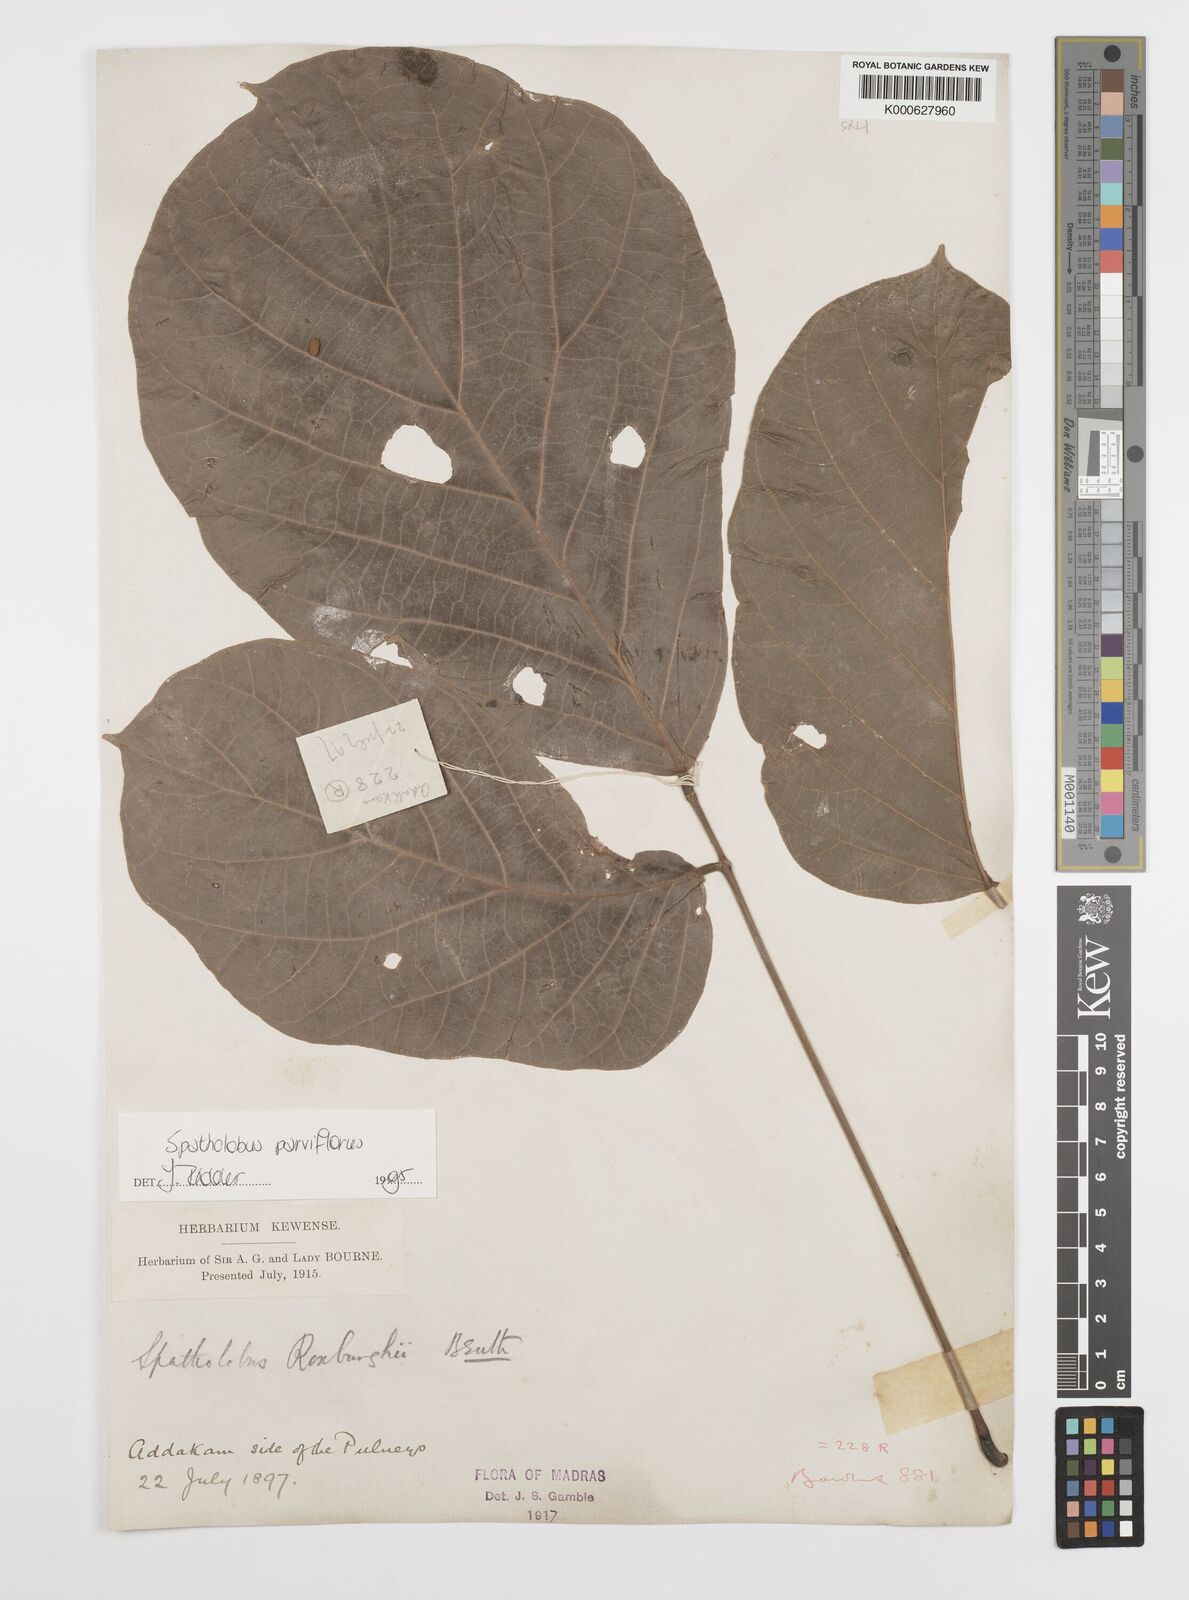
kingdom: Plantae
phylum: Tracheophyta
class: Magnoliopsida
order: Fabales
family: Fabaceae
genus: Spatholobus
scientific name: Spatholobus parviflorus
